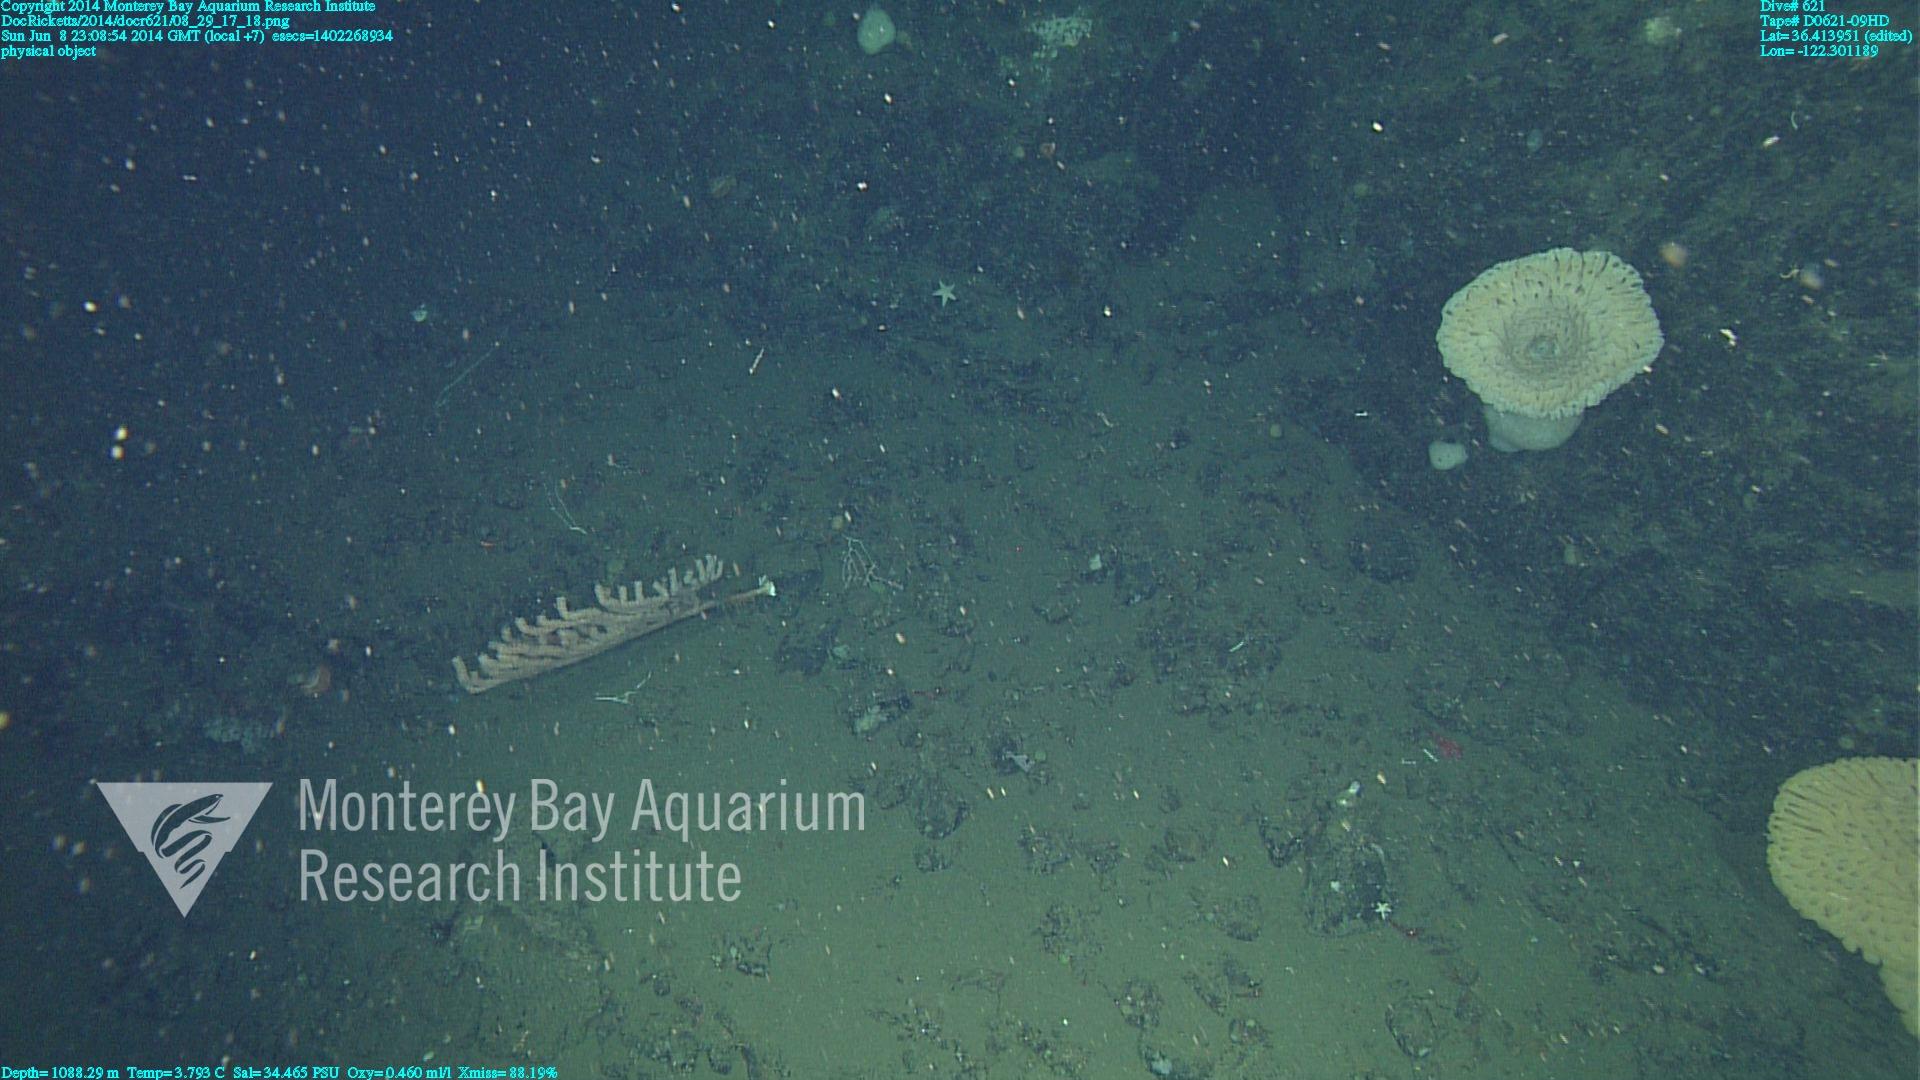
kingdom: Animalia
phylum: Cnidaria
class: Anthozoa
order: Scleralcyonacea
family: Keratoisididae
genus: Isidella
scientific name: Isidella
